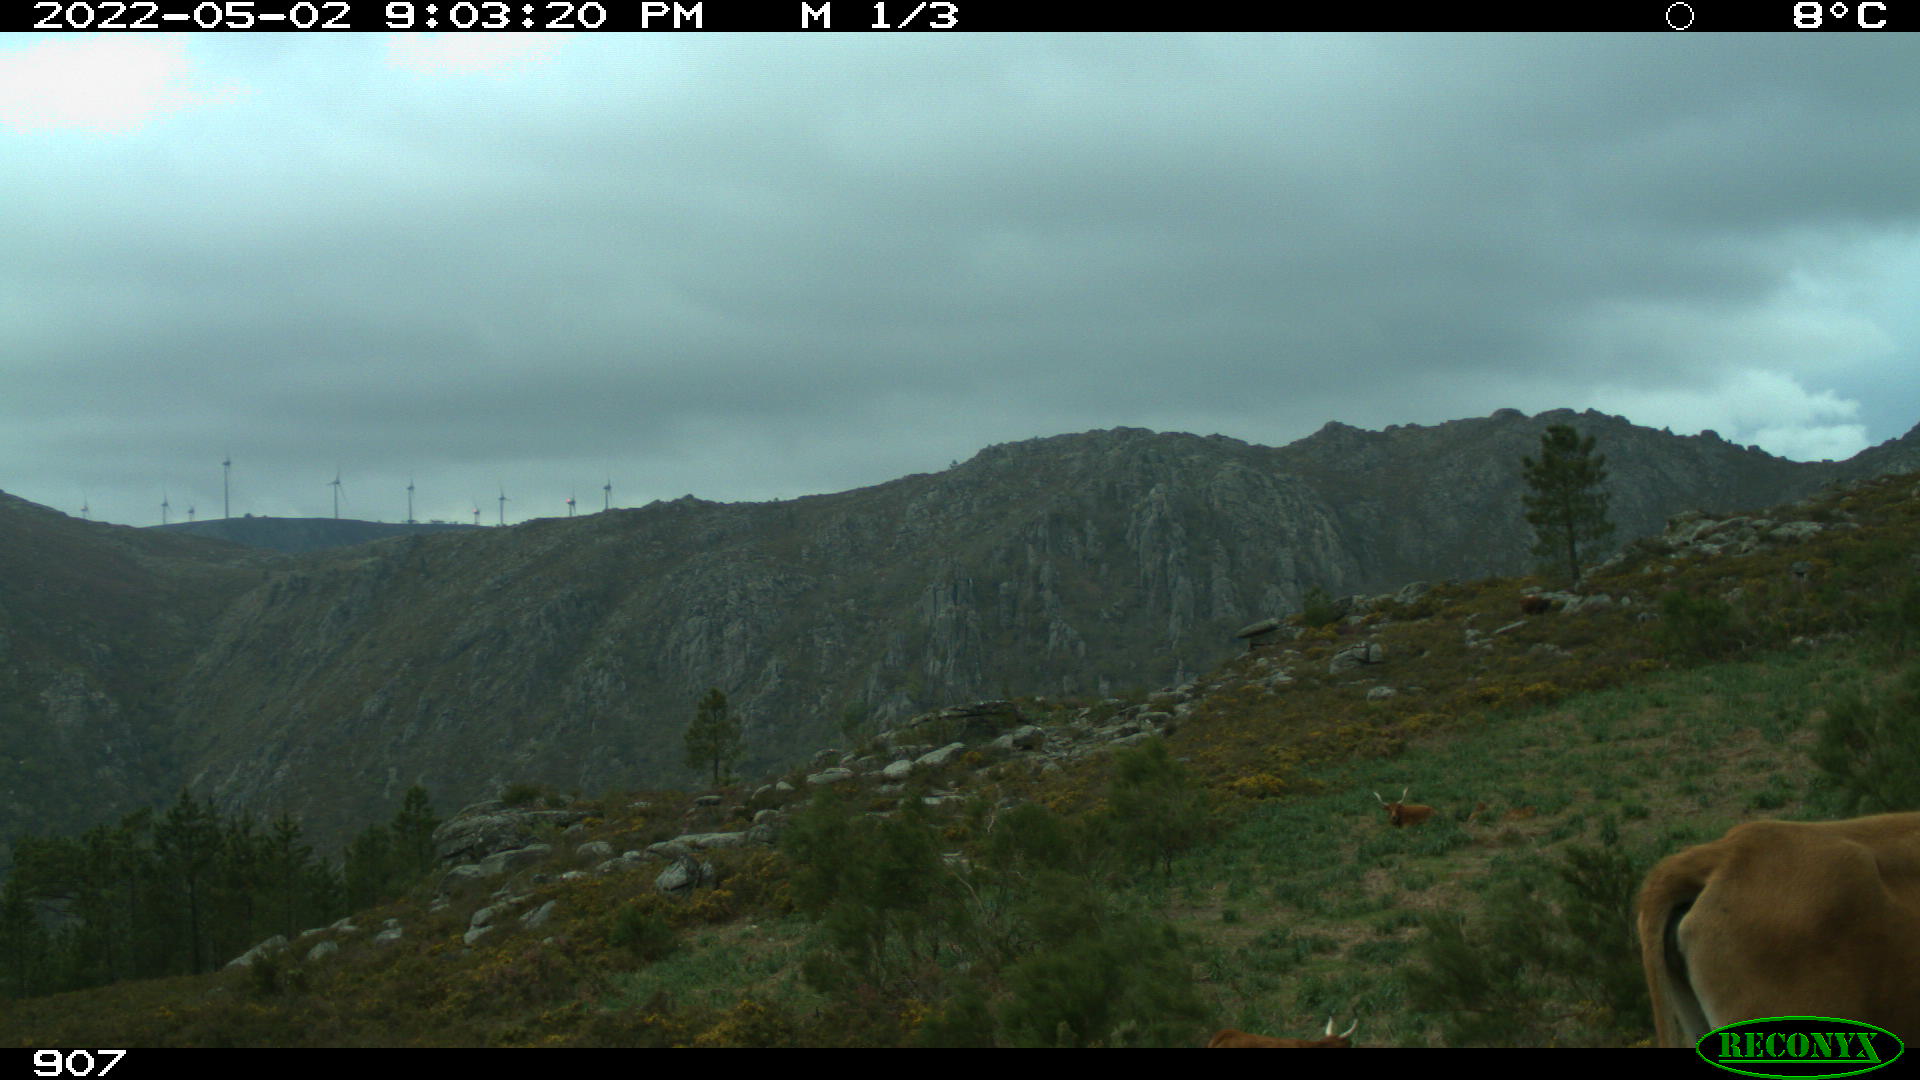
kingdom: Animalia
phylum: Chordata
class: Mammalia
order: Artiodactyla
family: Bovidae
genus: Bos
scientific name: Bos taurus
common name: Domesticated cattle
